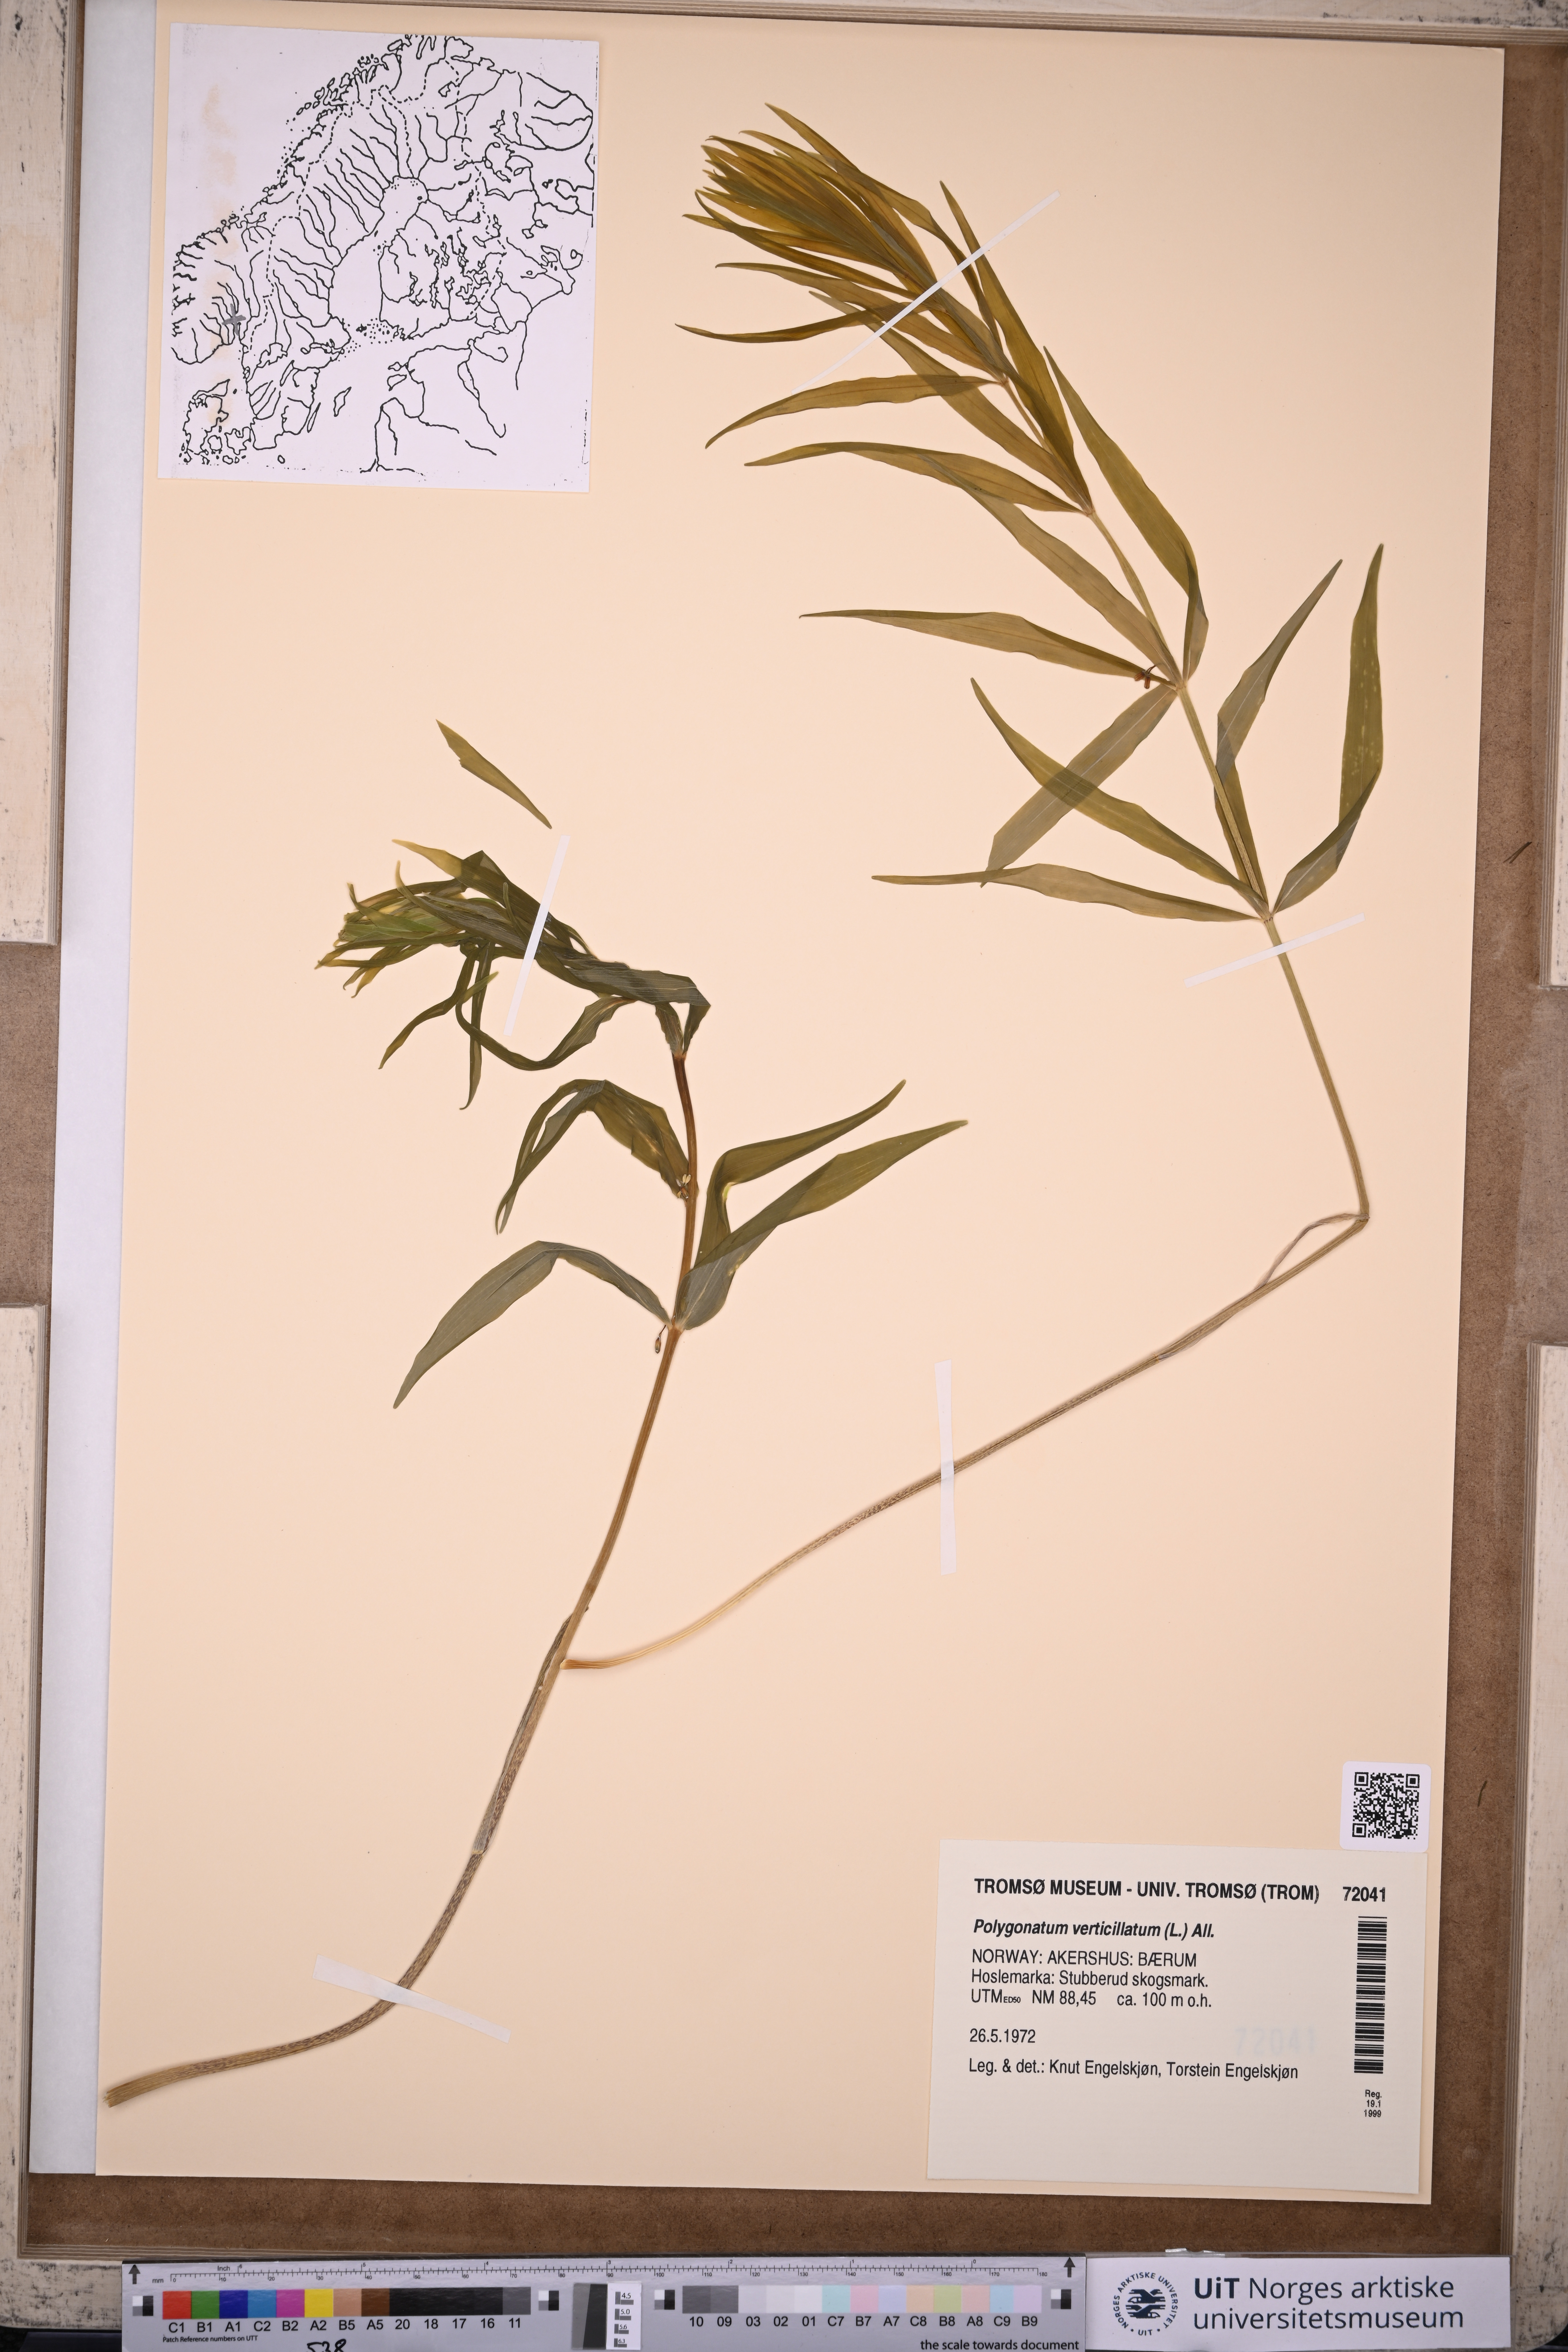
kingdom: Plantae
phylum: Tracheophyta
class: Liliopsida
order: Asparagales
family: Asparagaceae
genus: Polygonatum
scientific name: Polygonatum verticillatum
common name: Whorled solomon's-seal
